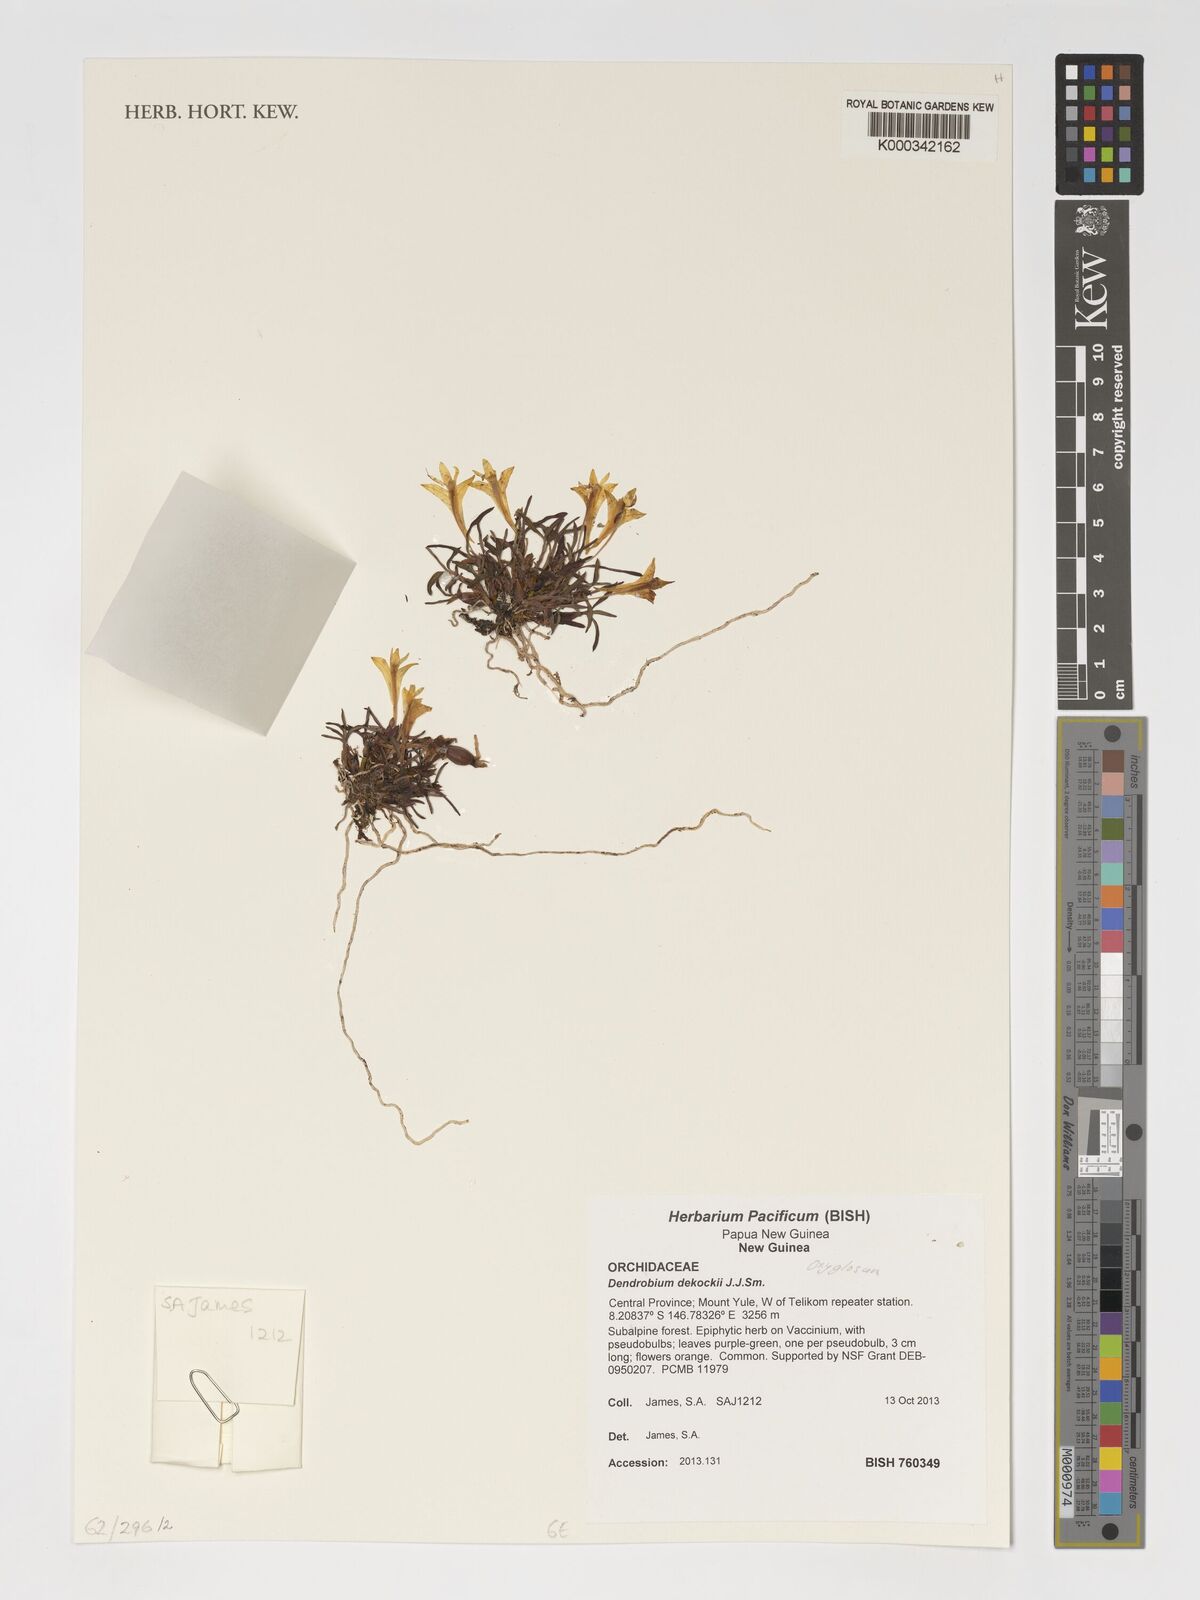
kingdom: Plantae
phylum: Tracheophyta
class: Liliopsida
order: Asparagales
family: Orchidaceae
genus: Dendrobium
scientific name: Dendrobium dekockii
